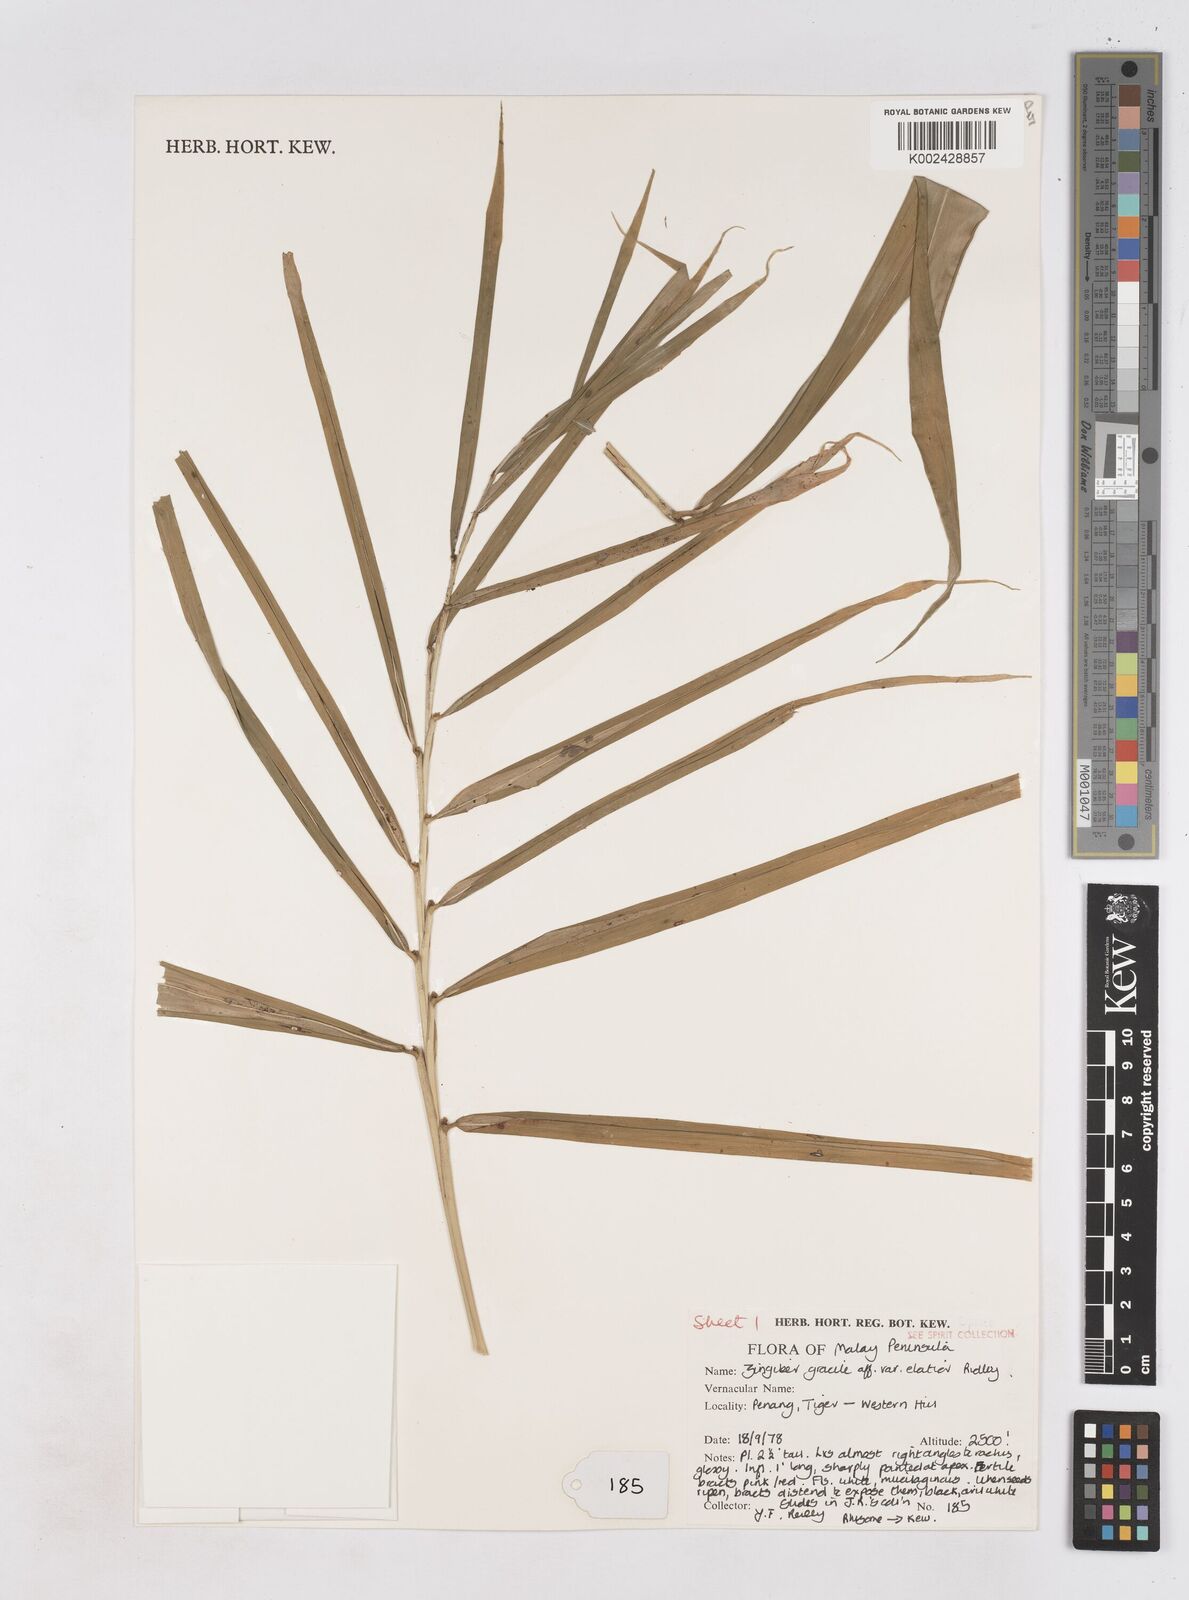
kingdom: Plantae
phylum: Tracheophyta
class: Liliopsida
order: Zingiberales
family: Zingiberaceae
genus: Zingiber
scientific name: Zingiber gracile
